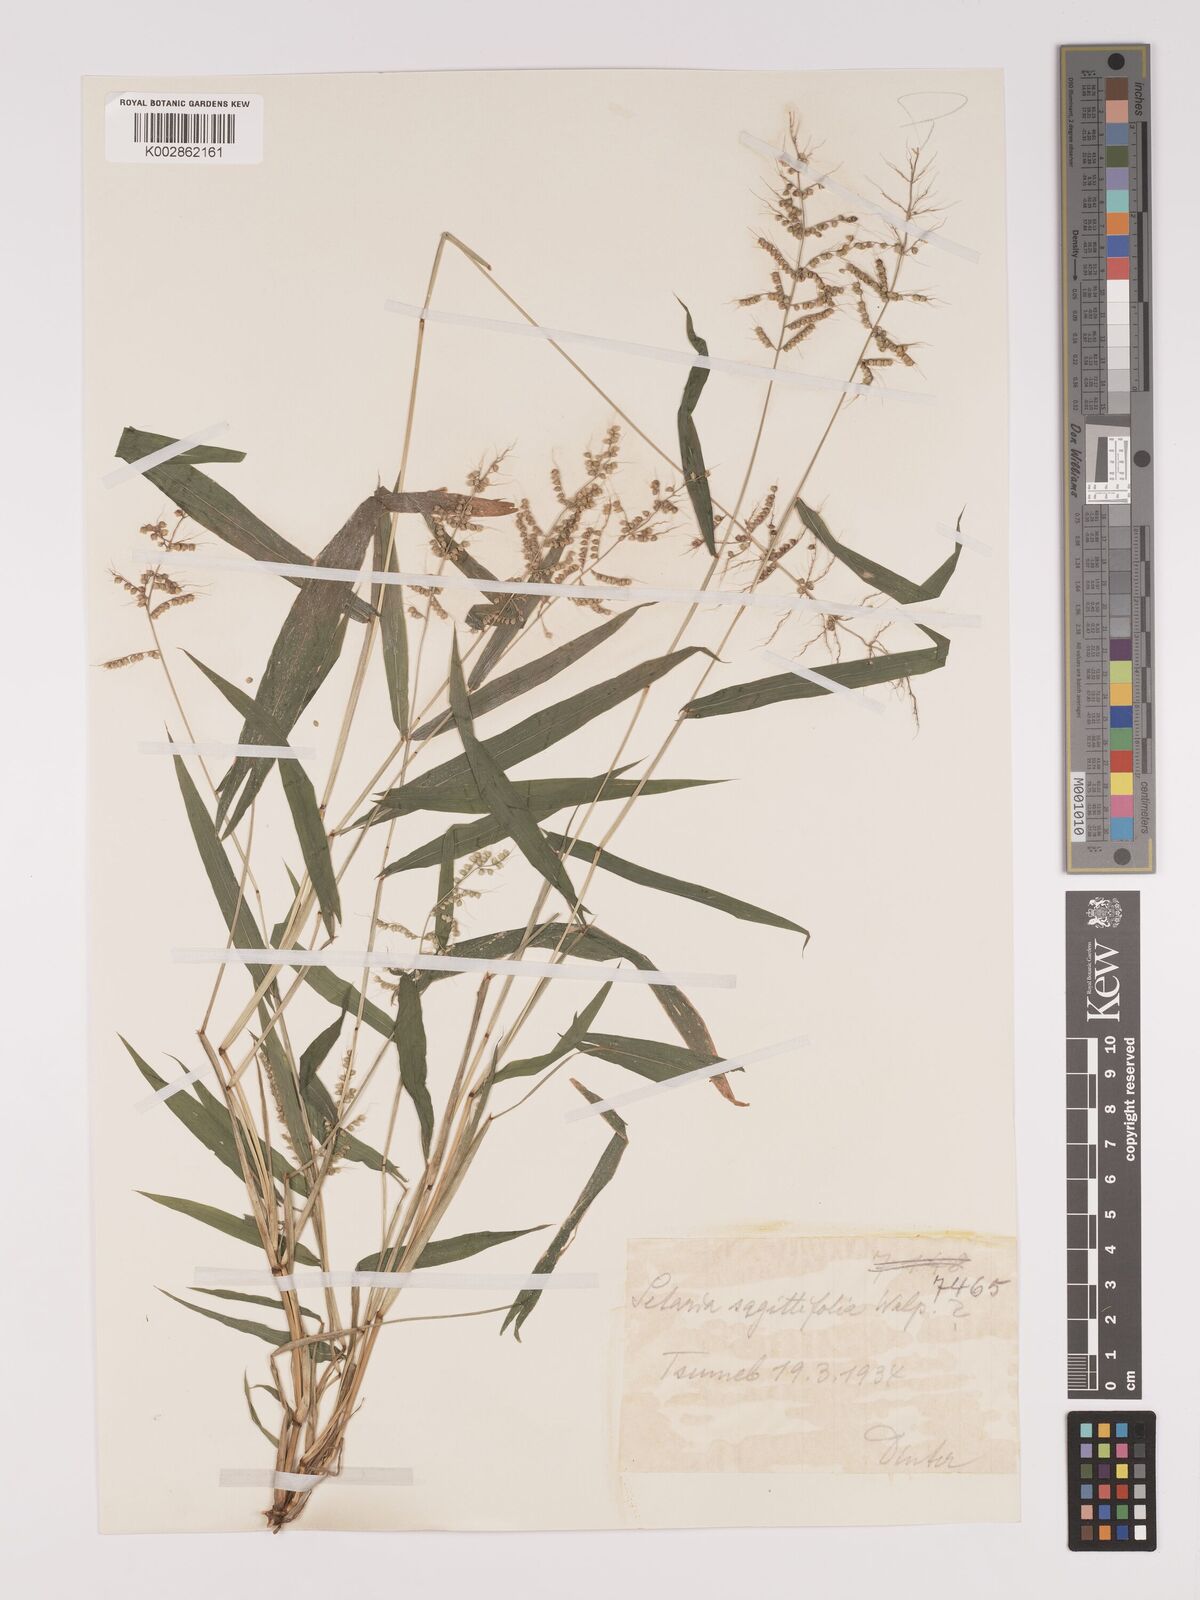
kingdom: Plantae
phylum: Tracheophyta
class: Liliopsida
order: Poales
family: Poaceae
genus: Setaria
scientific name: Setaria sagittifolia
